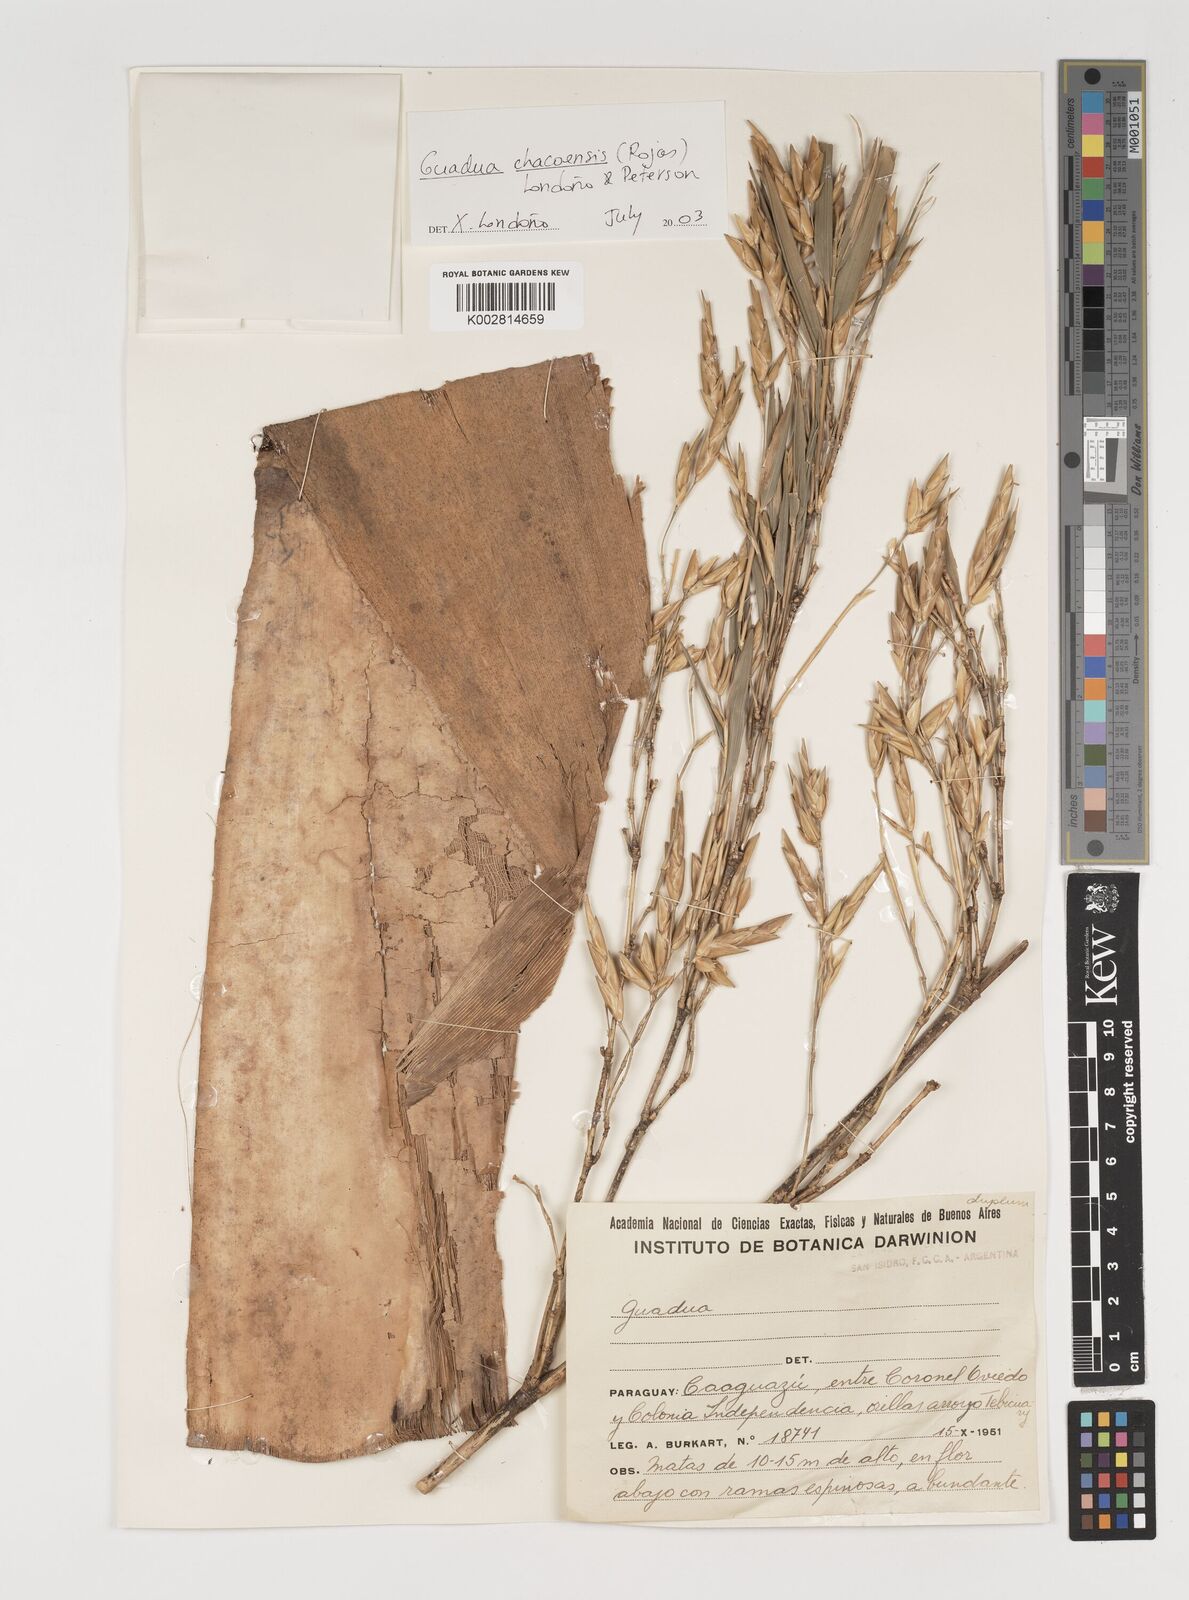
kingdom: Plantae
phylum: Tracheophyta
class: Liliopsida
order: Poales
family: Poaceae
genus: Guadua
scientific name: Guadua chacoensis
